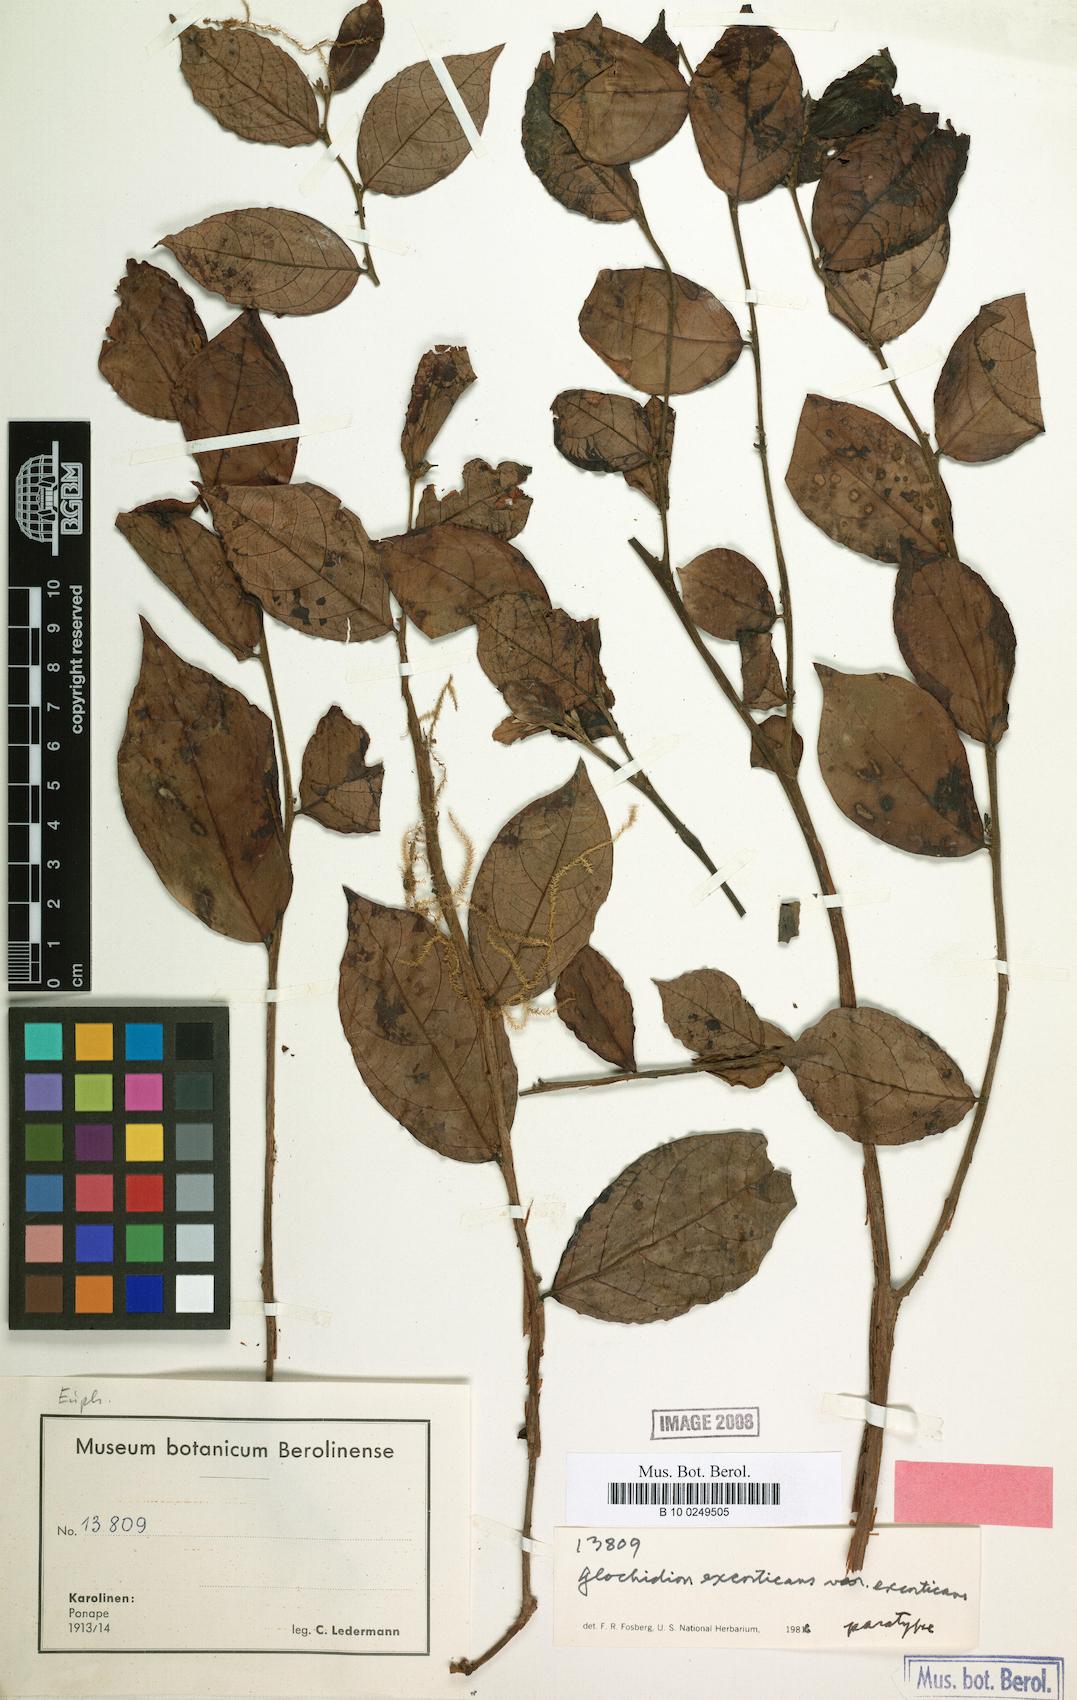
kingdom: Plantae
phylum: Tracheophyta
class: Magnoliopsida
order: Malpighiales
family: Phyllanthaceae
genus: Glochidion
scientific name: Glochidion puberulum
